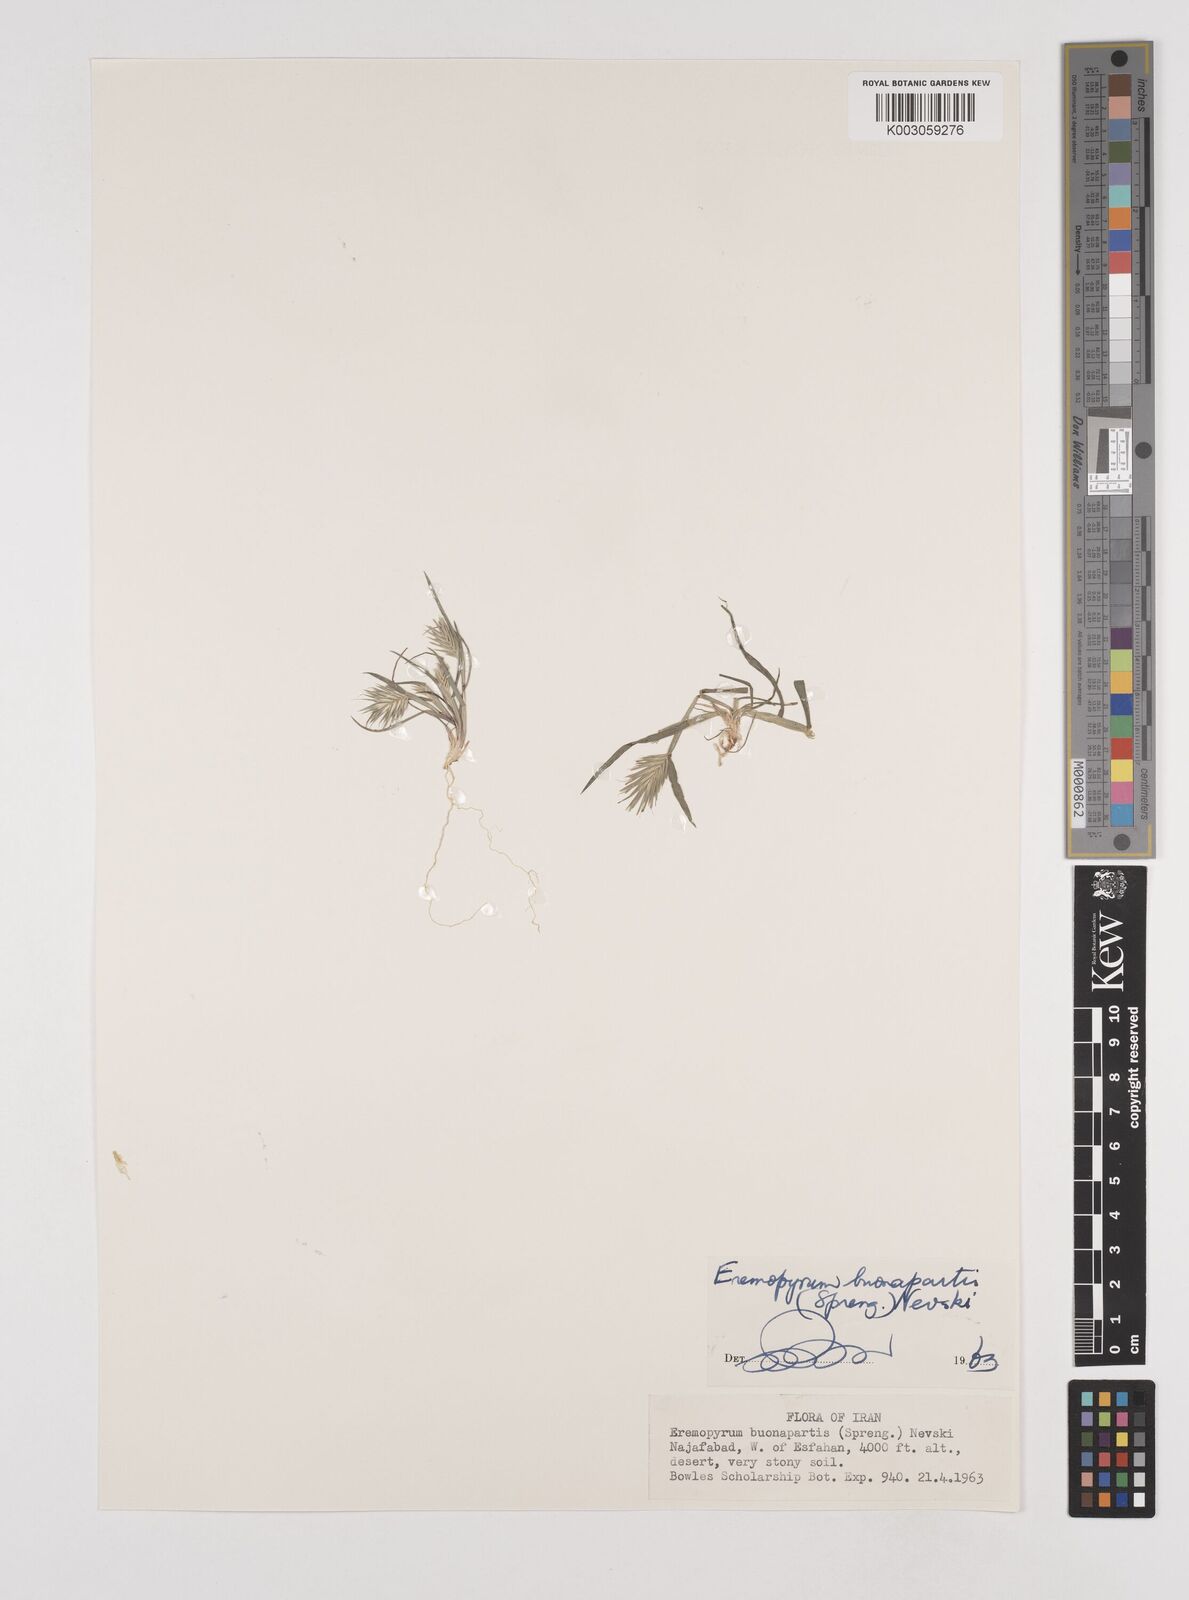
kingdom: Plantae
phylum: Tracheophyta
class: Liliopsida
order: Poales
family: Poaceae
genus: Eremopyrum
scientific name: Eremopyrum bonaepartis
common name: Tapertip false wheatgrass
